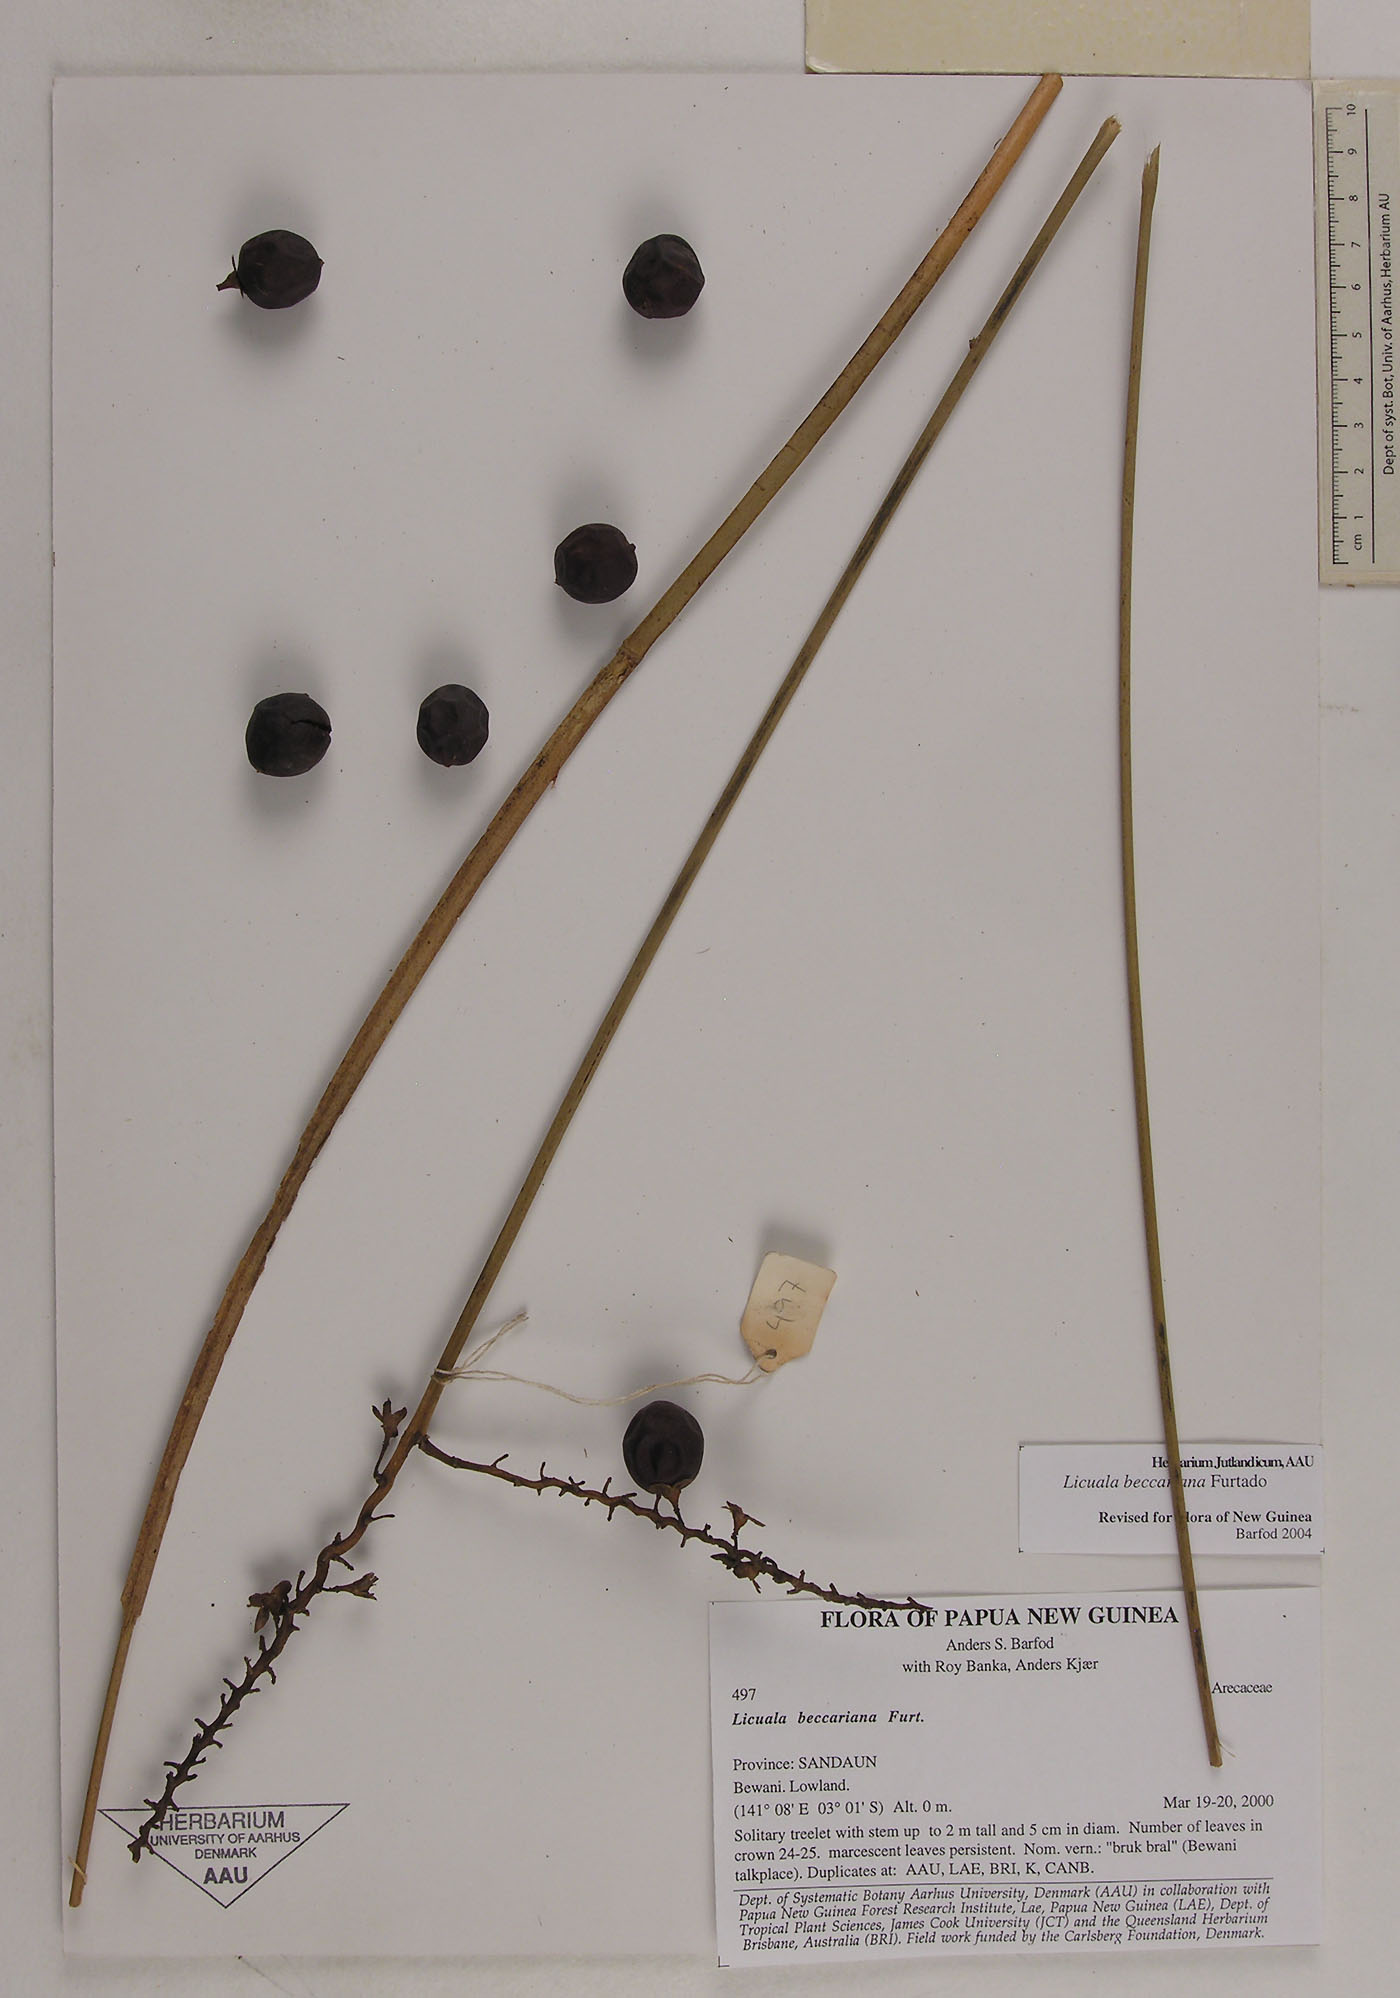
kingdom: Plantae
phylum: Tracheophyta
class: Liliopsida
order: Arecales
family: Arecaceae
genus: Licuala
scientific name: Licuala beccariana
